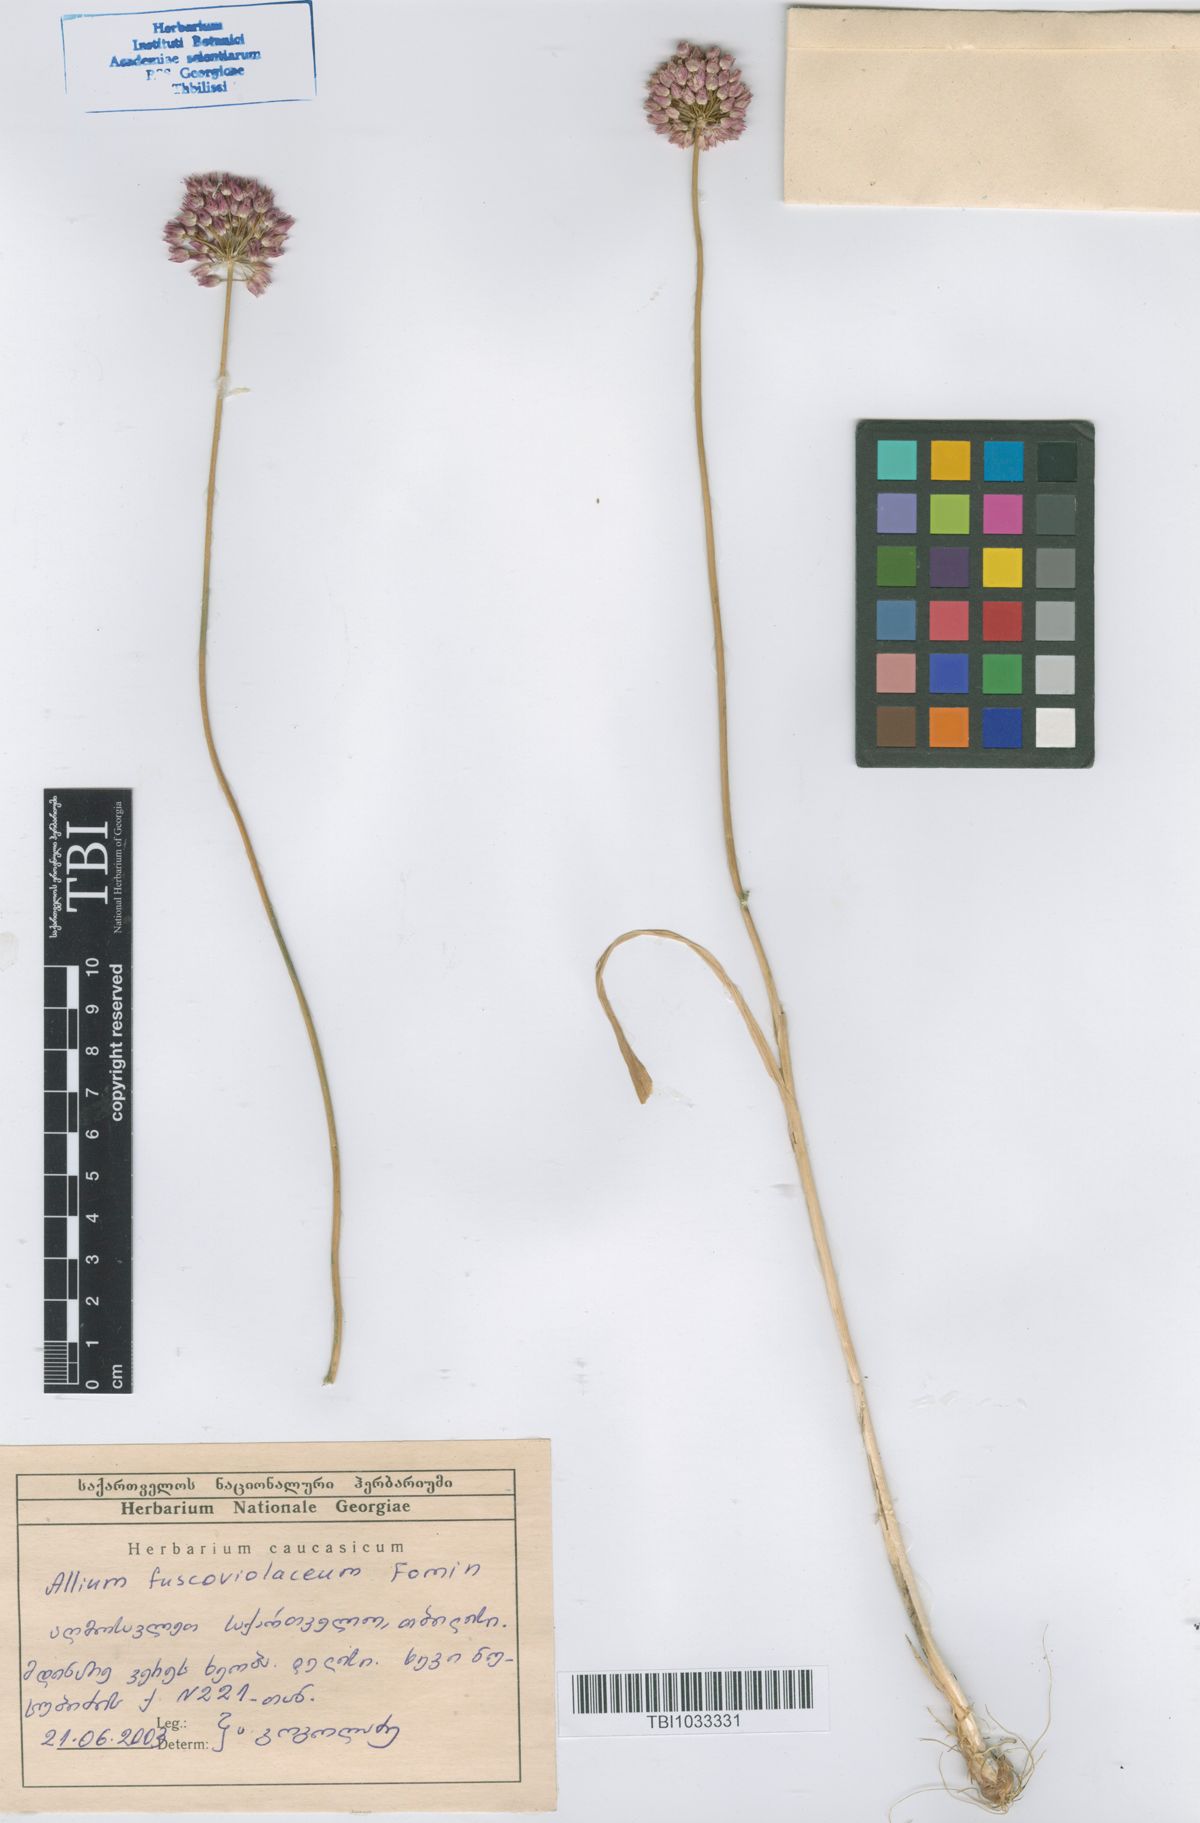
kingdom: Plantae
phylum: Tracheophyta
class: Liliopsida
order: Asparagales
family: Amaryllidaceae
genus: Allium
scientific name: Allium fuscoviolaceum
